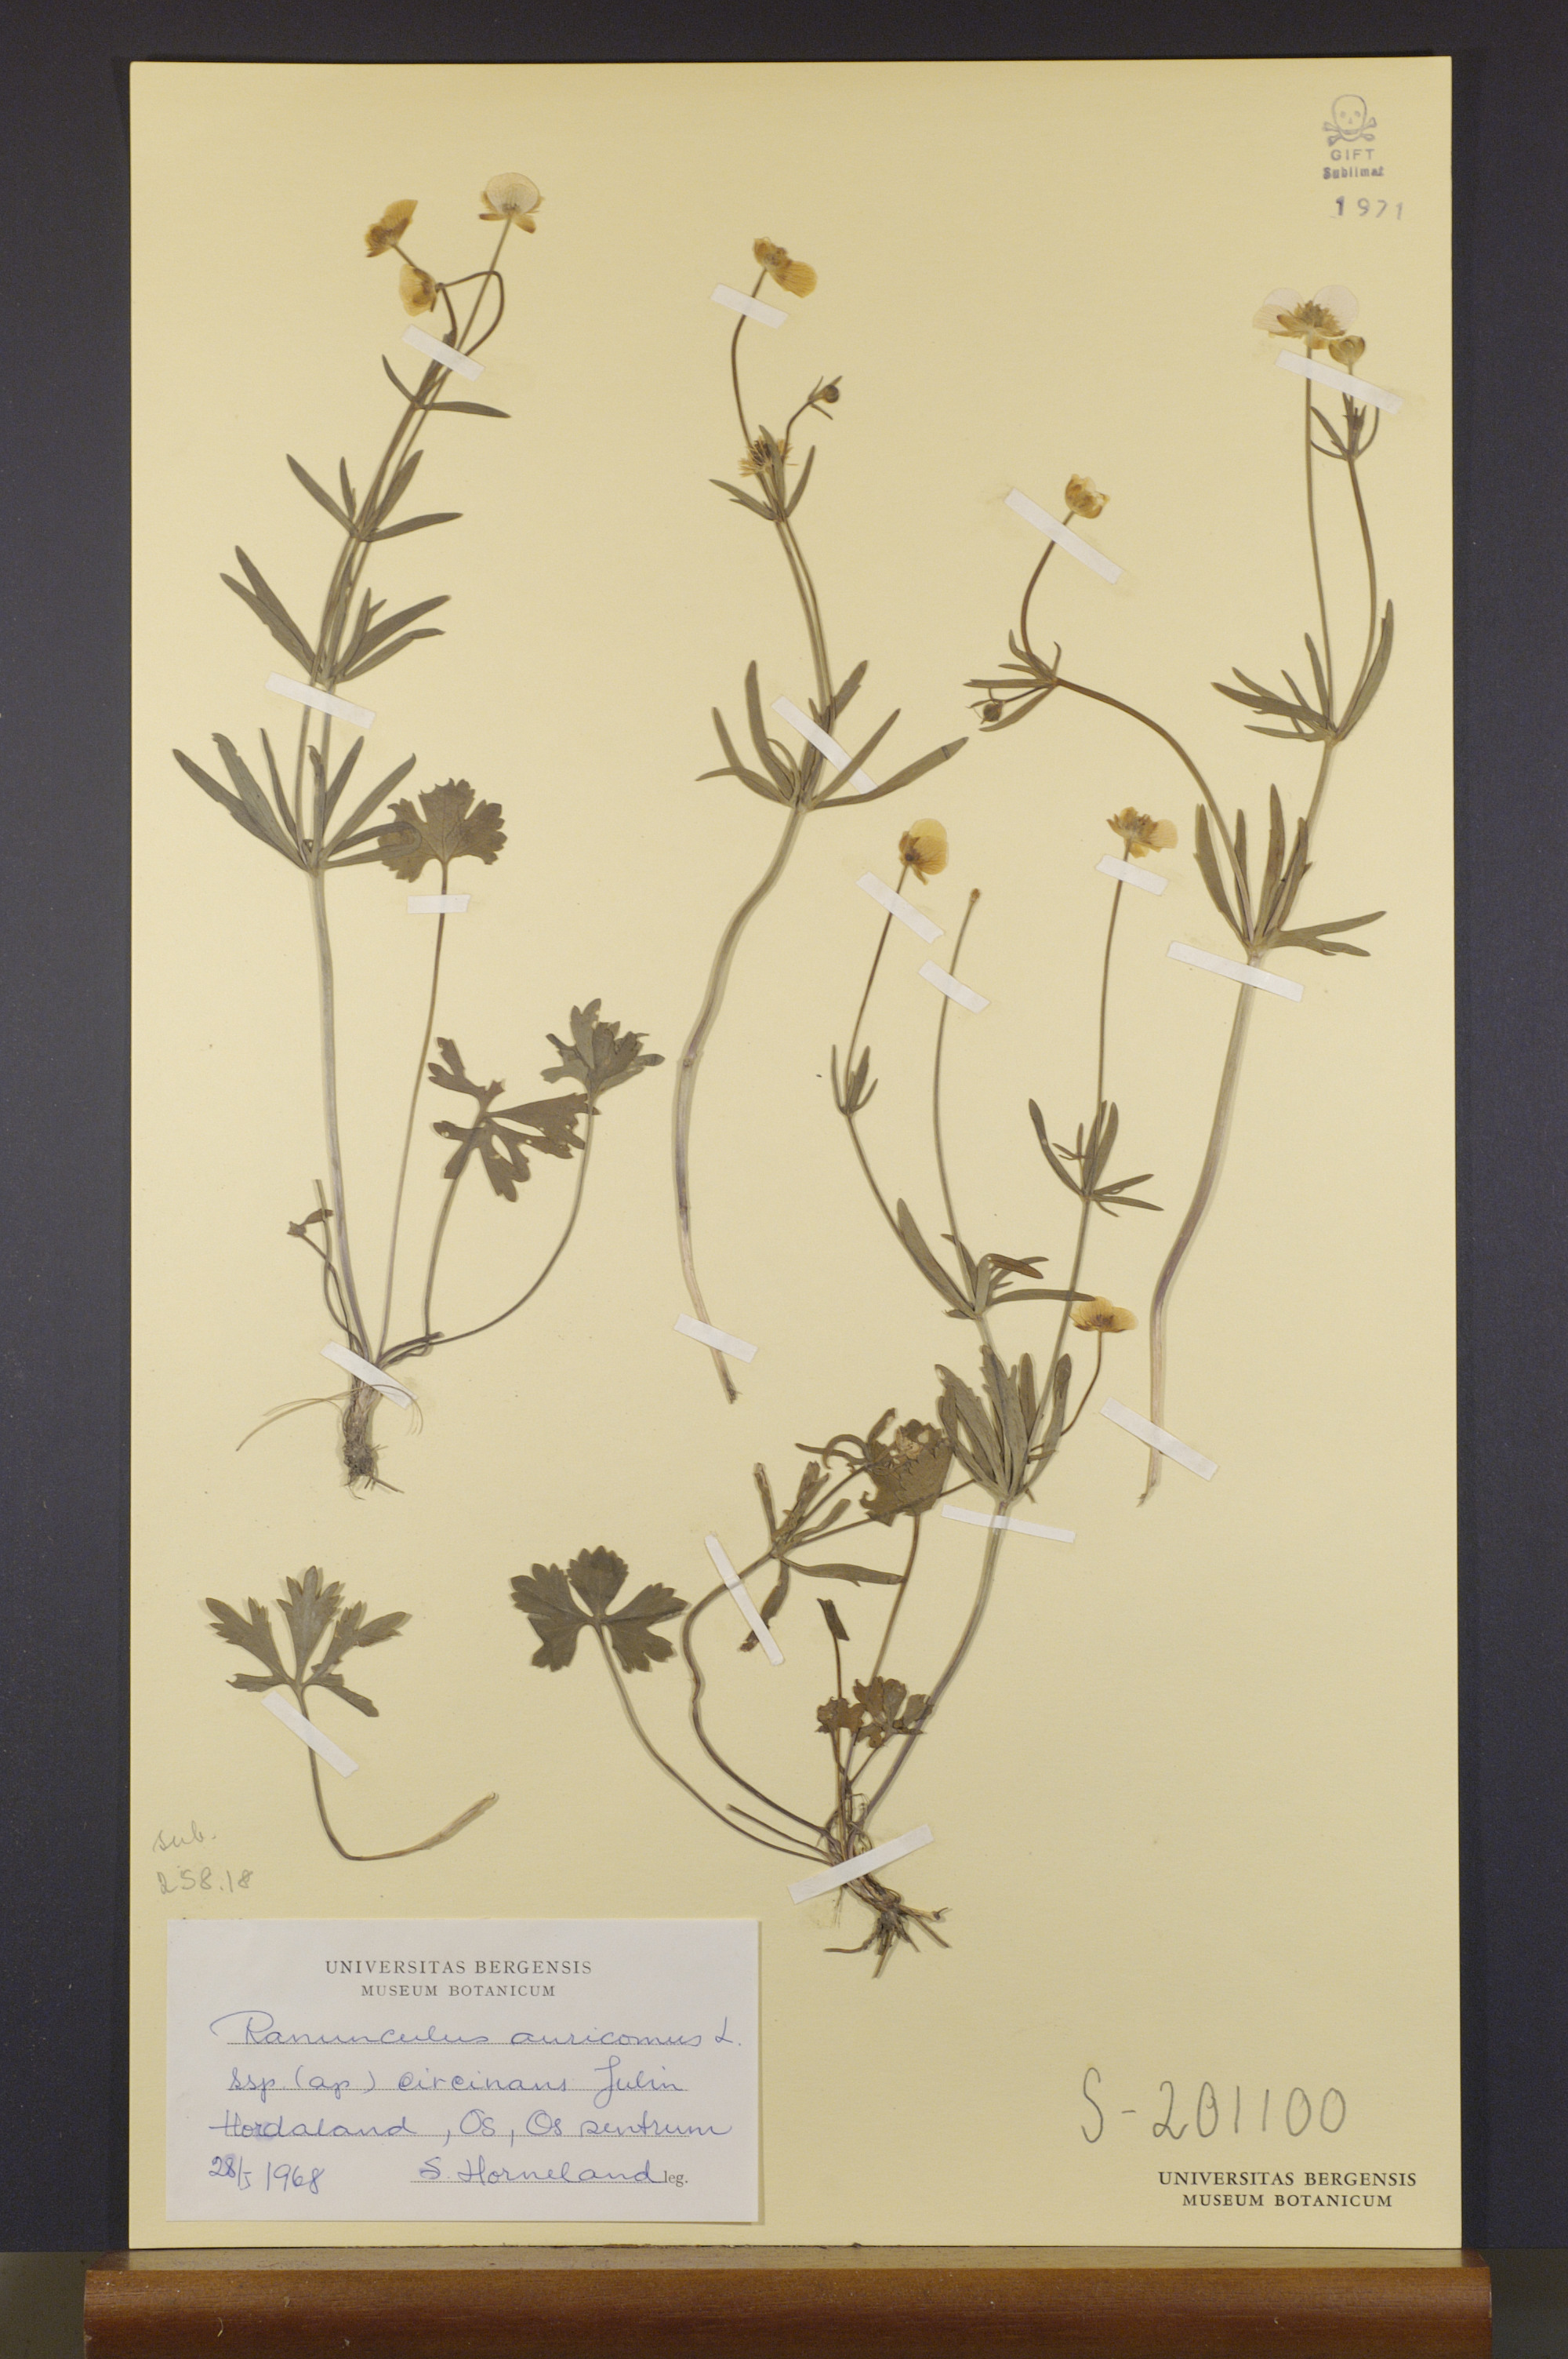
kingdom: Plantae
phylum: Tracheophyta
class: Magnoliopsida
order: Ranunculales
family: Ranunculaceae
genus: Ranunculus
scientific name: Ranunculus circinans
